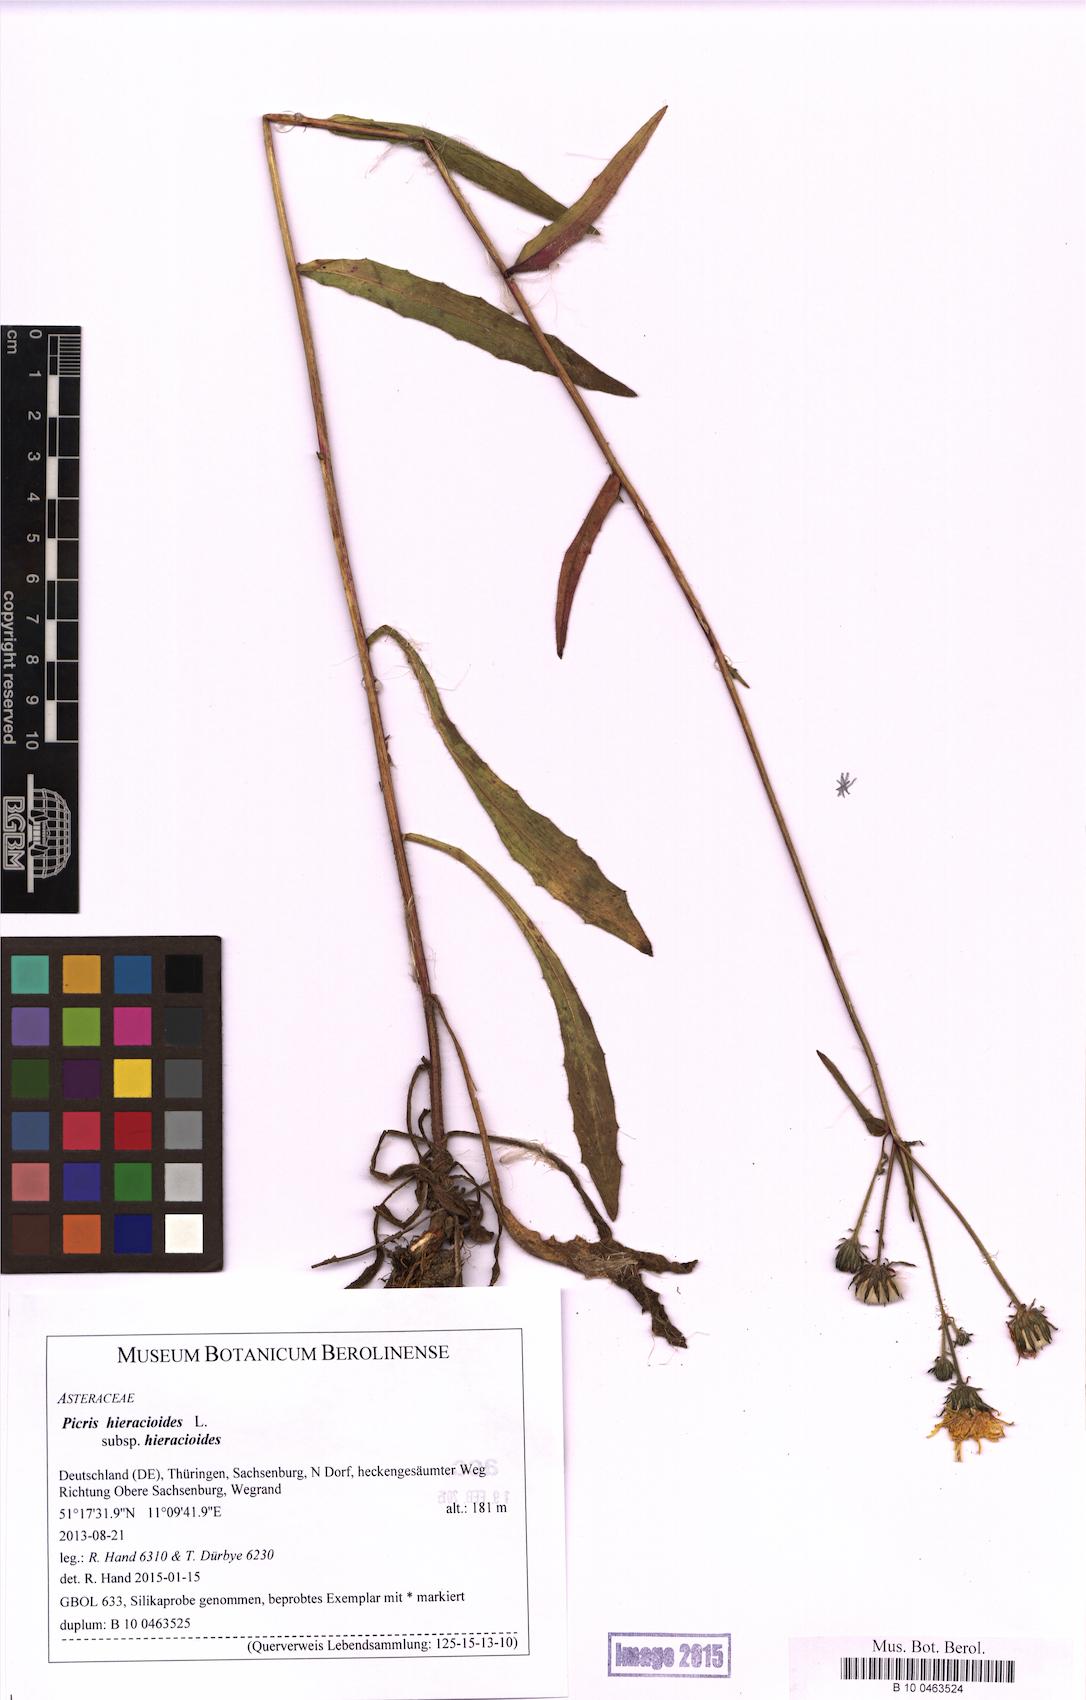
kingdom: Plantae
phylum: Tracheophyta
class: Magnoliopsida
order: Asterales
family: Asteraceae
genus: Picris
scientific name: Picris hieracioides
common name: Hawkweed oxtongue
